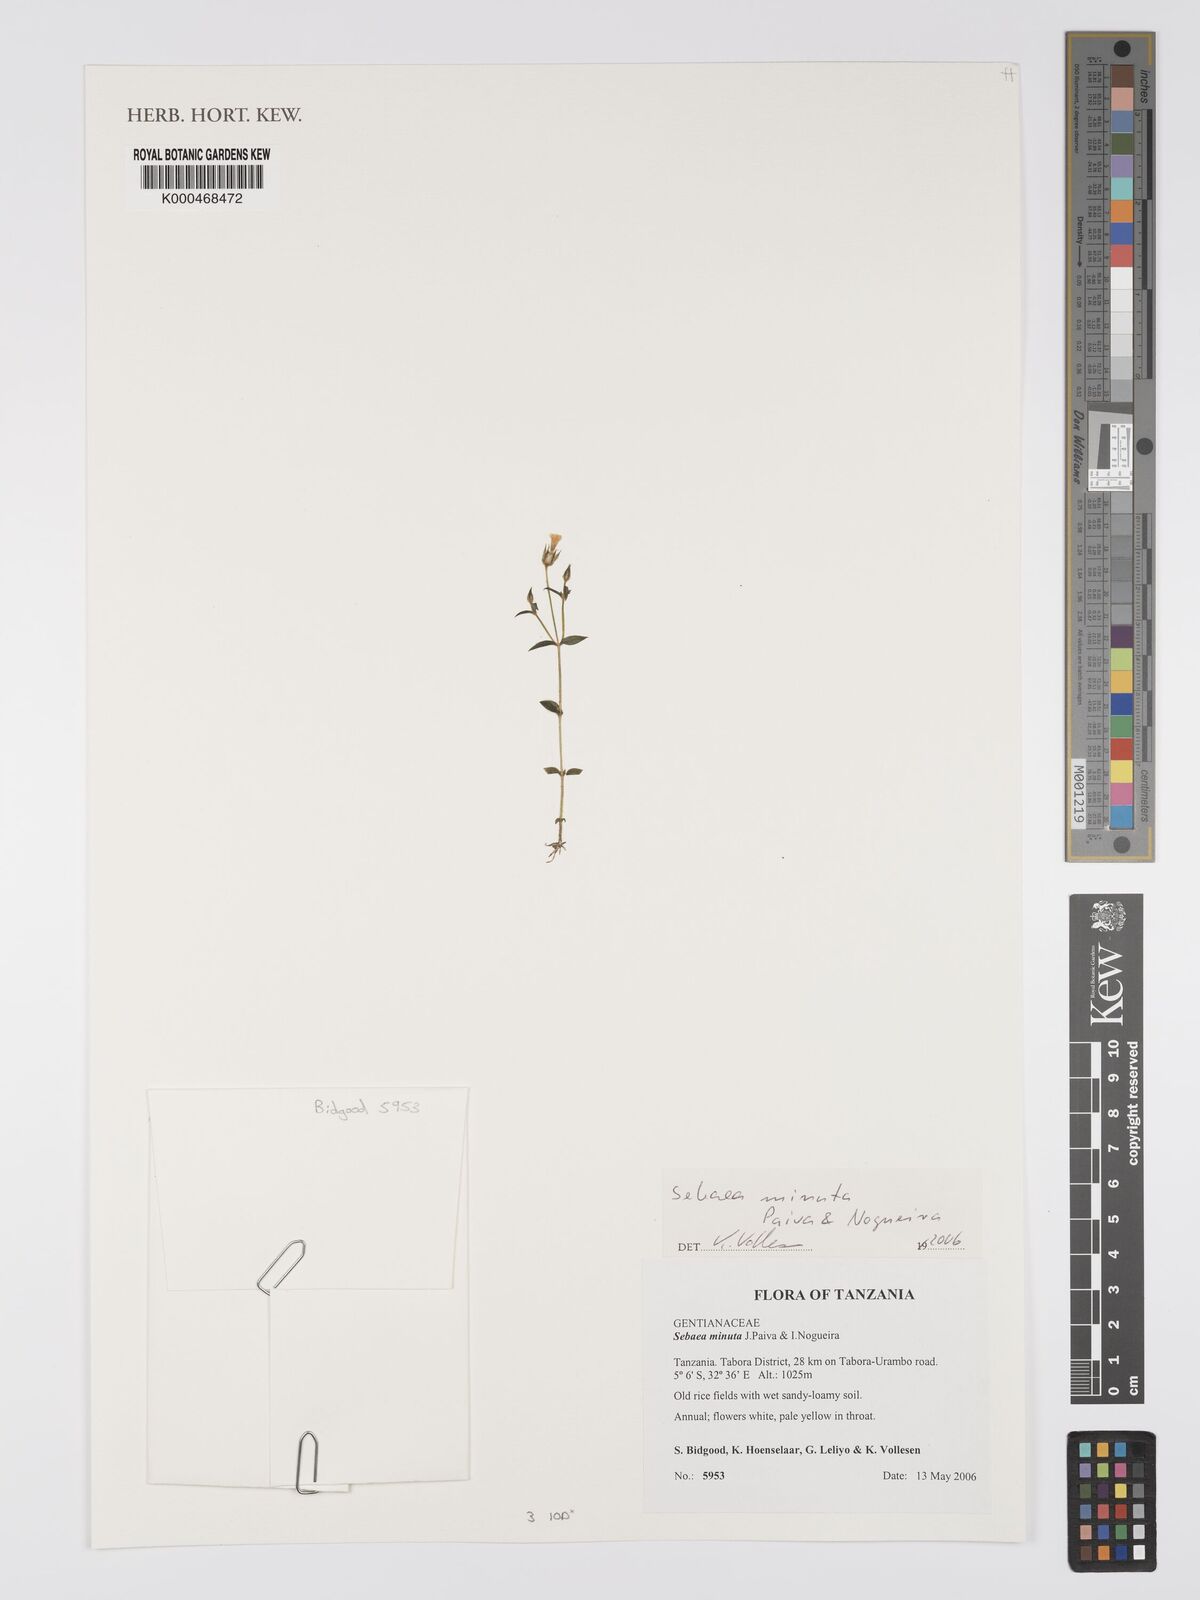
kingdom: Plantae
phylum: Tracheophyta
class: Magnoliopsida
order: Gentianales
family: Gentianaceae
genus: Exochaenium
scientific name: Exochaenium exiguum
